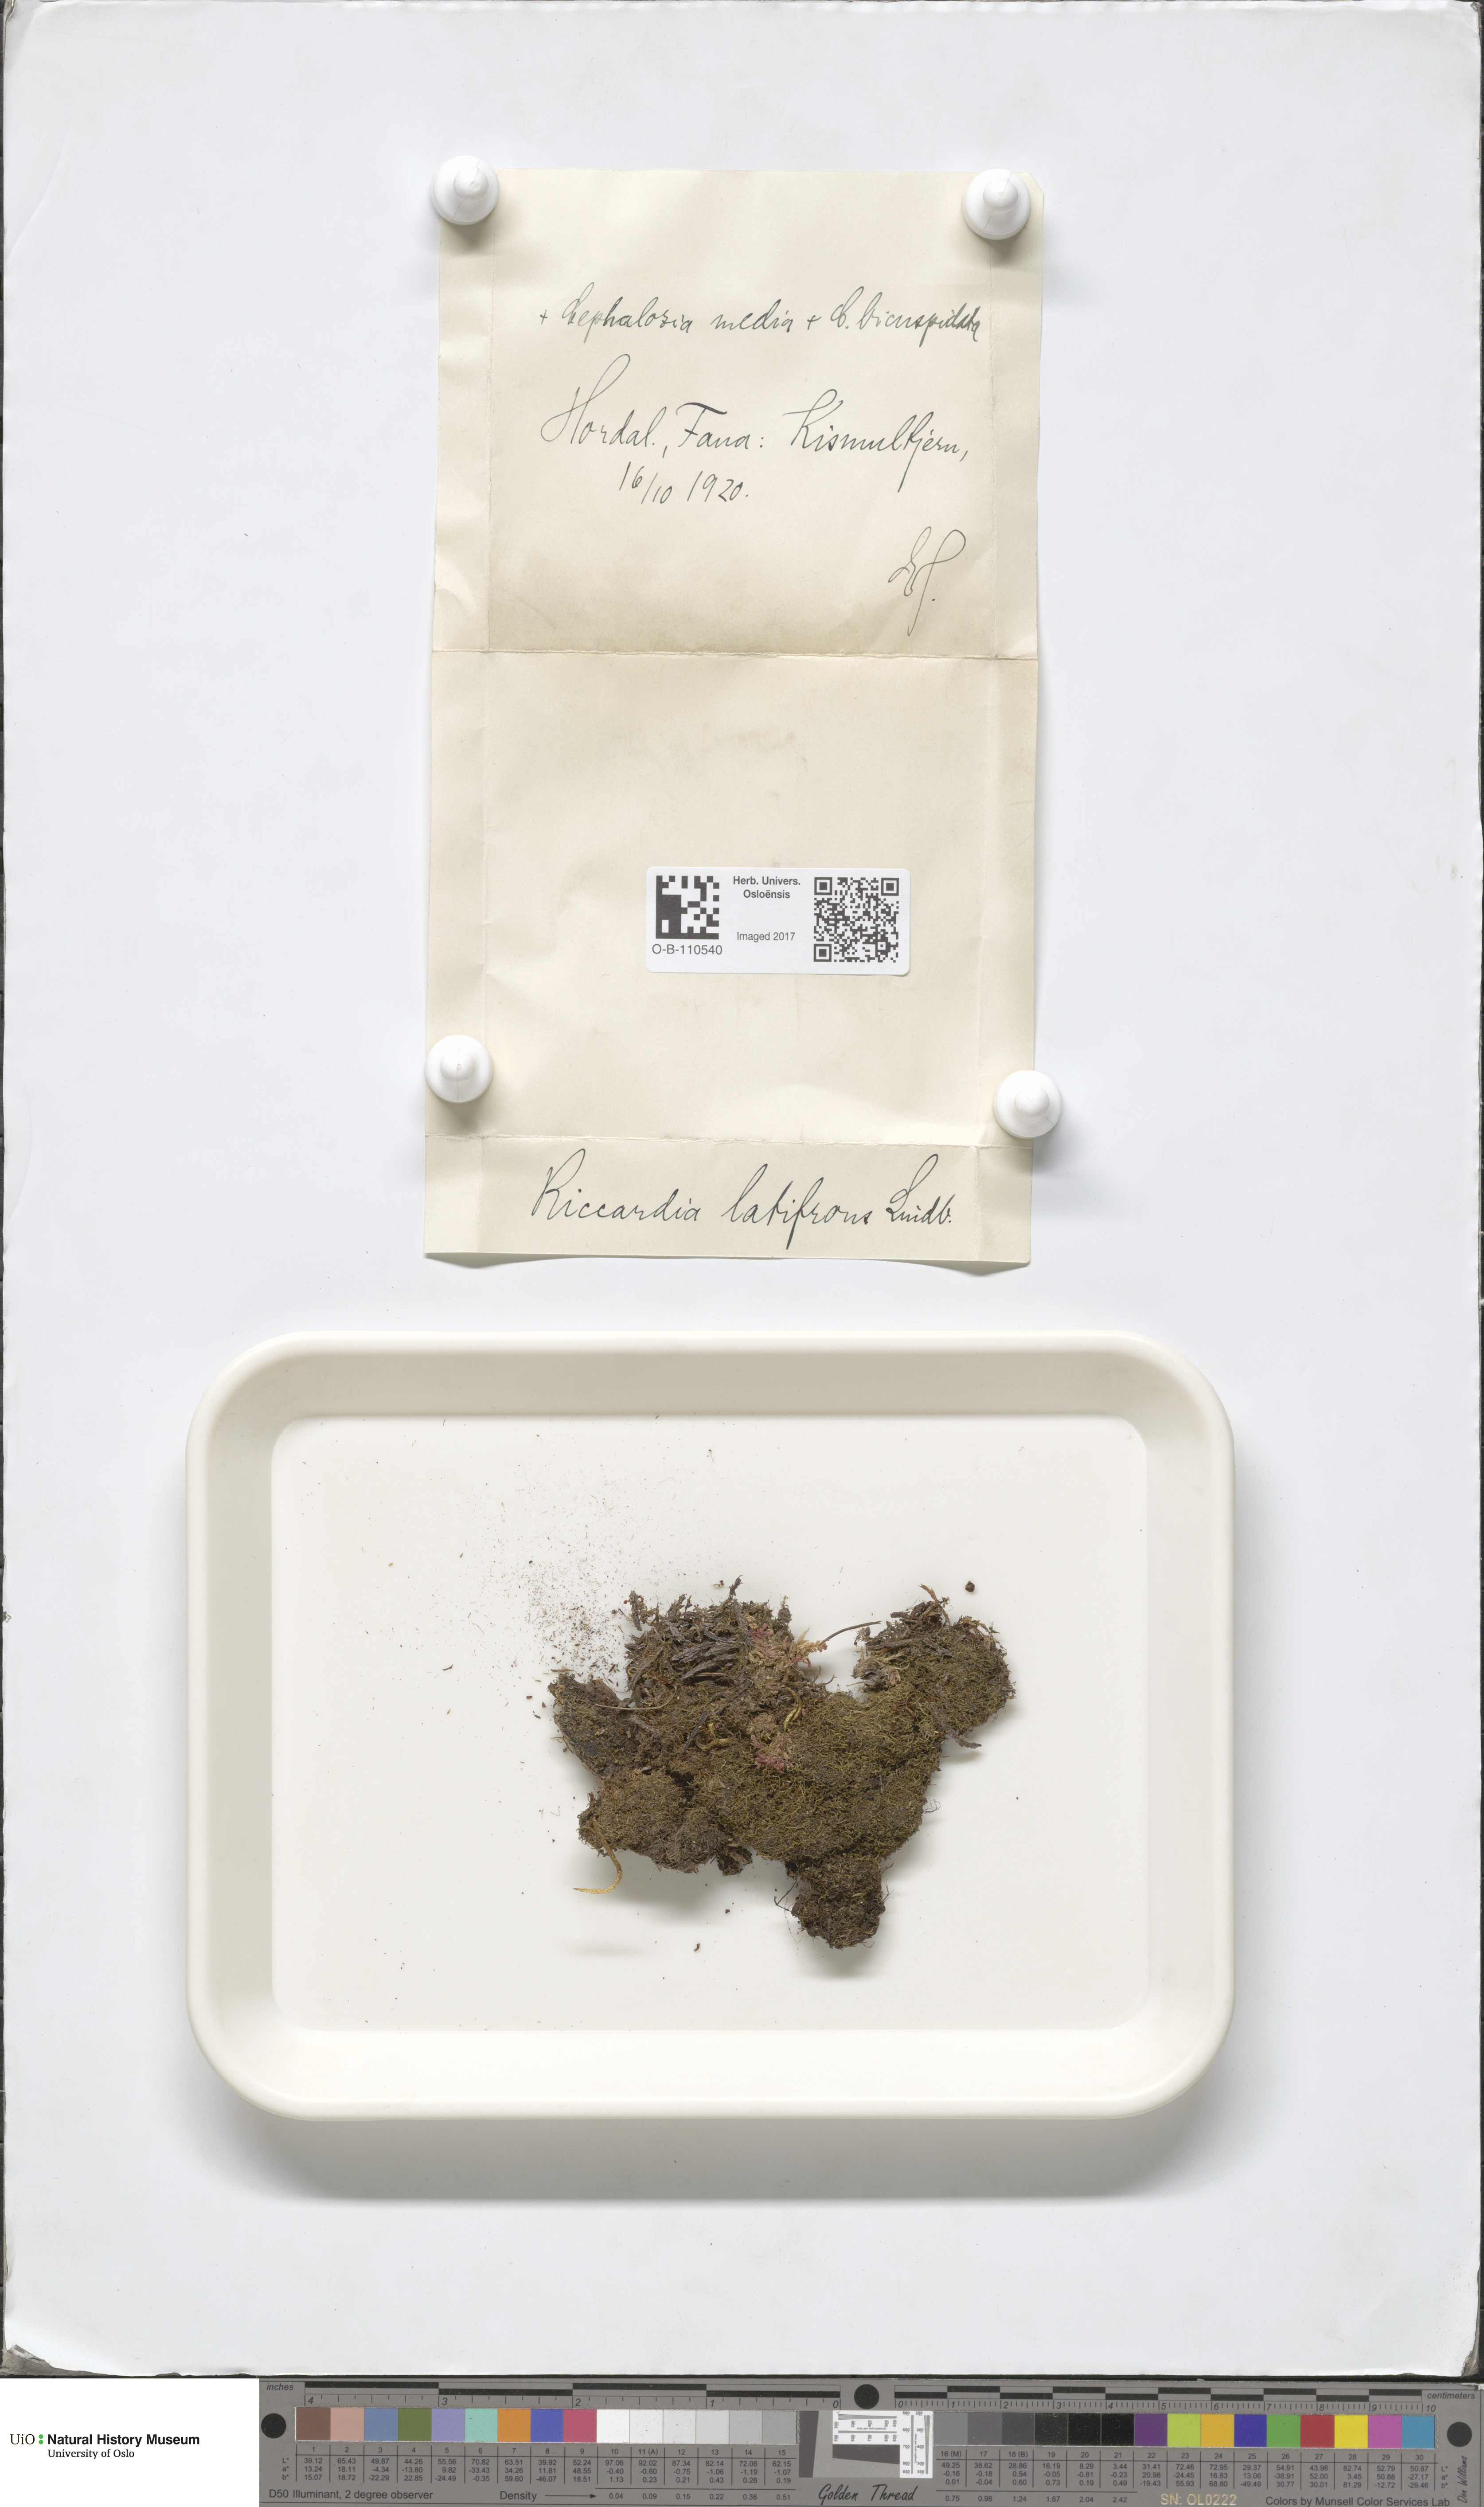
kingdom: Plantae
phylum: Marchantiophyta
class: Jungermanniopsida
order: Metzgeriales
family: Aneuraceae
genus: Riccardia
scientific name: Riccardia latifrons
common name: Bog germanderwort
